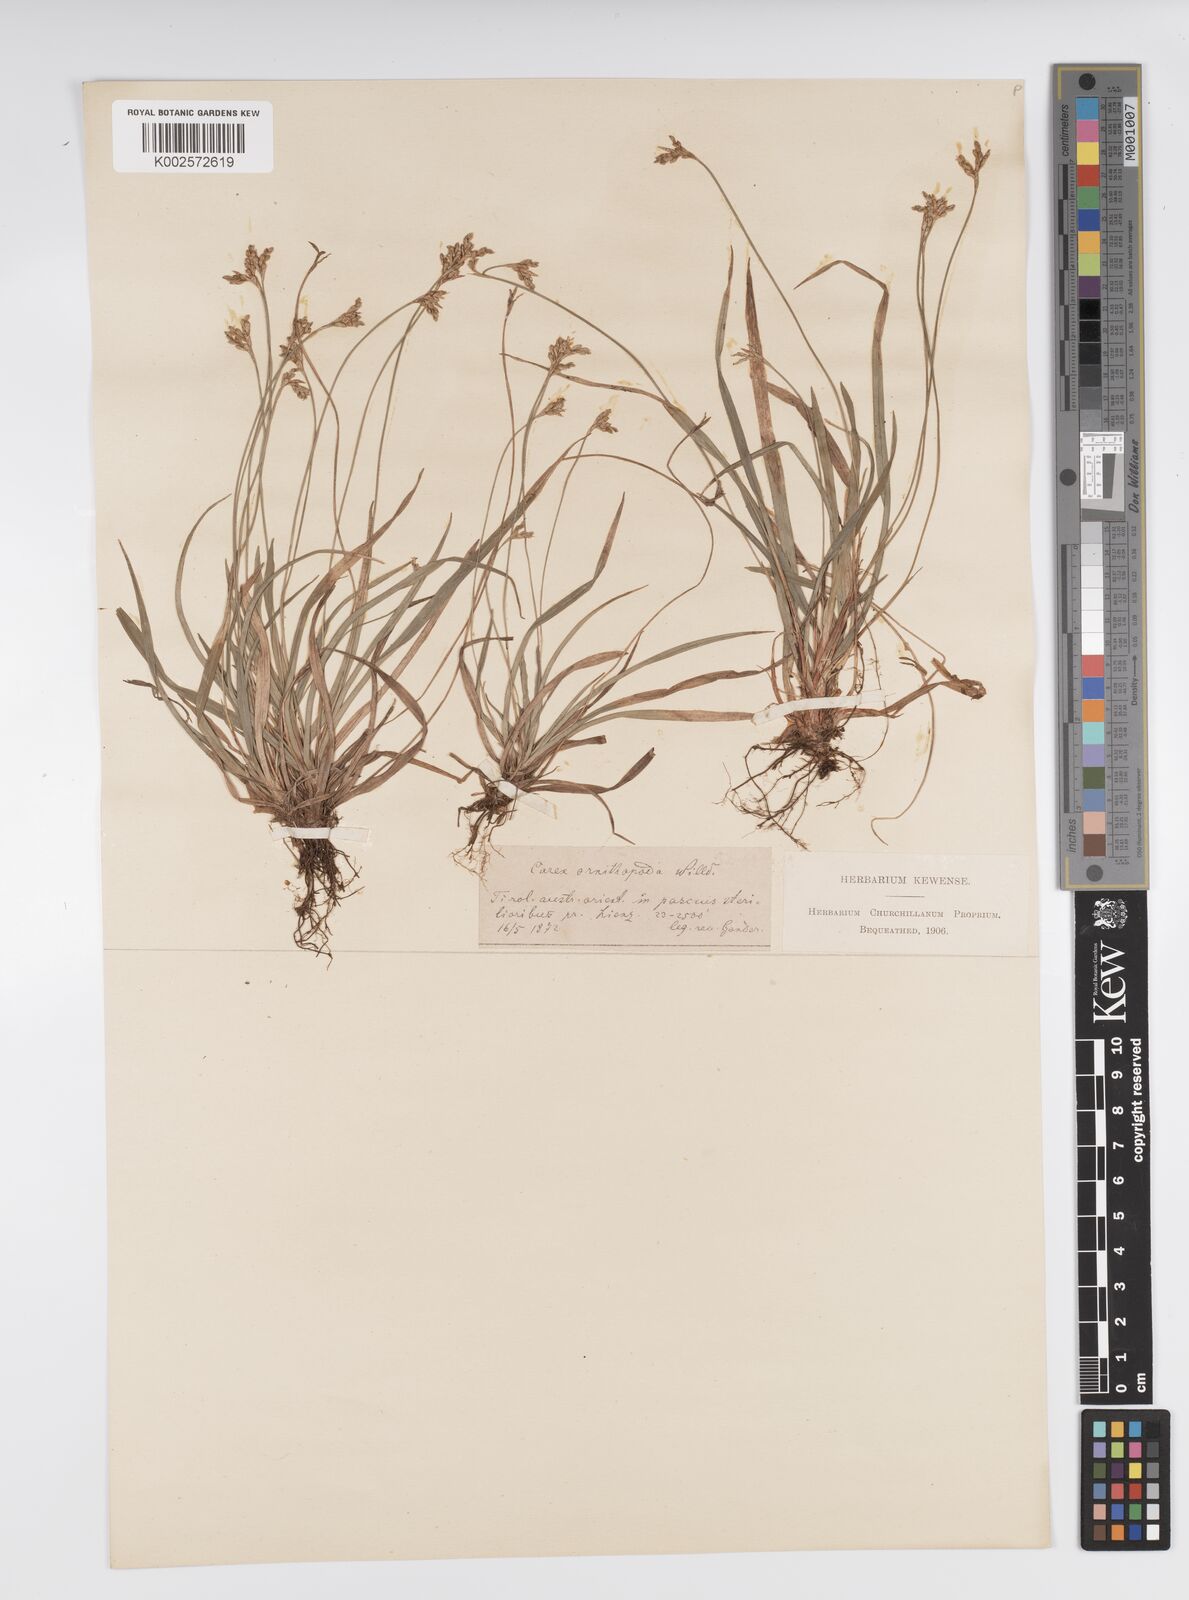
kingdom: Plantae
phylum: Tracheophyta
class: Liliopsida
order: Poales
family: Cyperaceae
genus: Carex
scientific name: Carex ornithopoda
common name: Bird's-foot sedge
